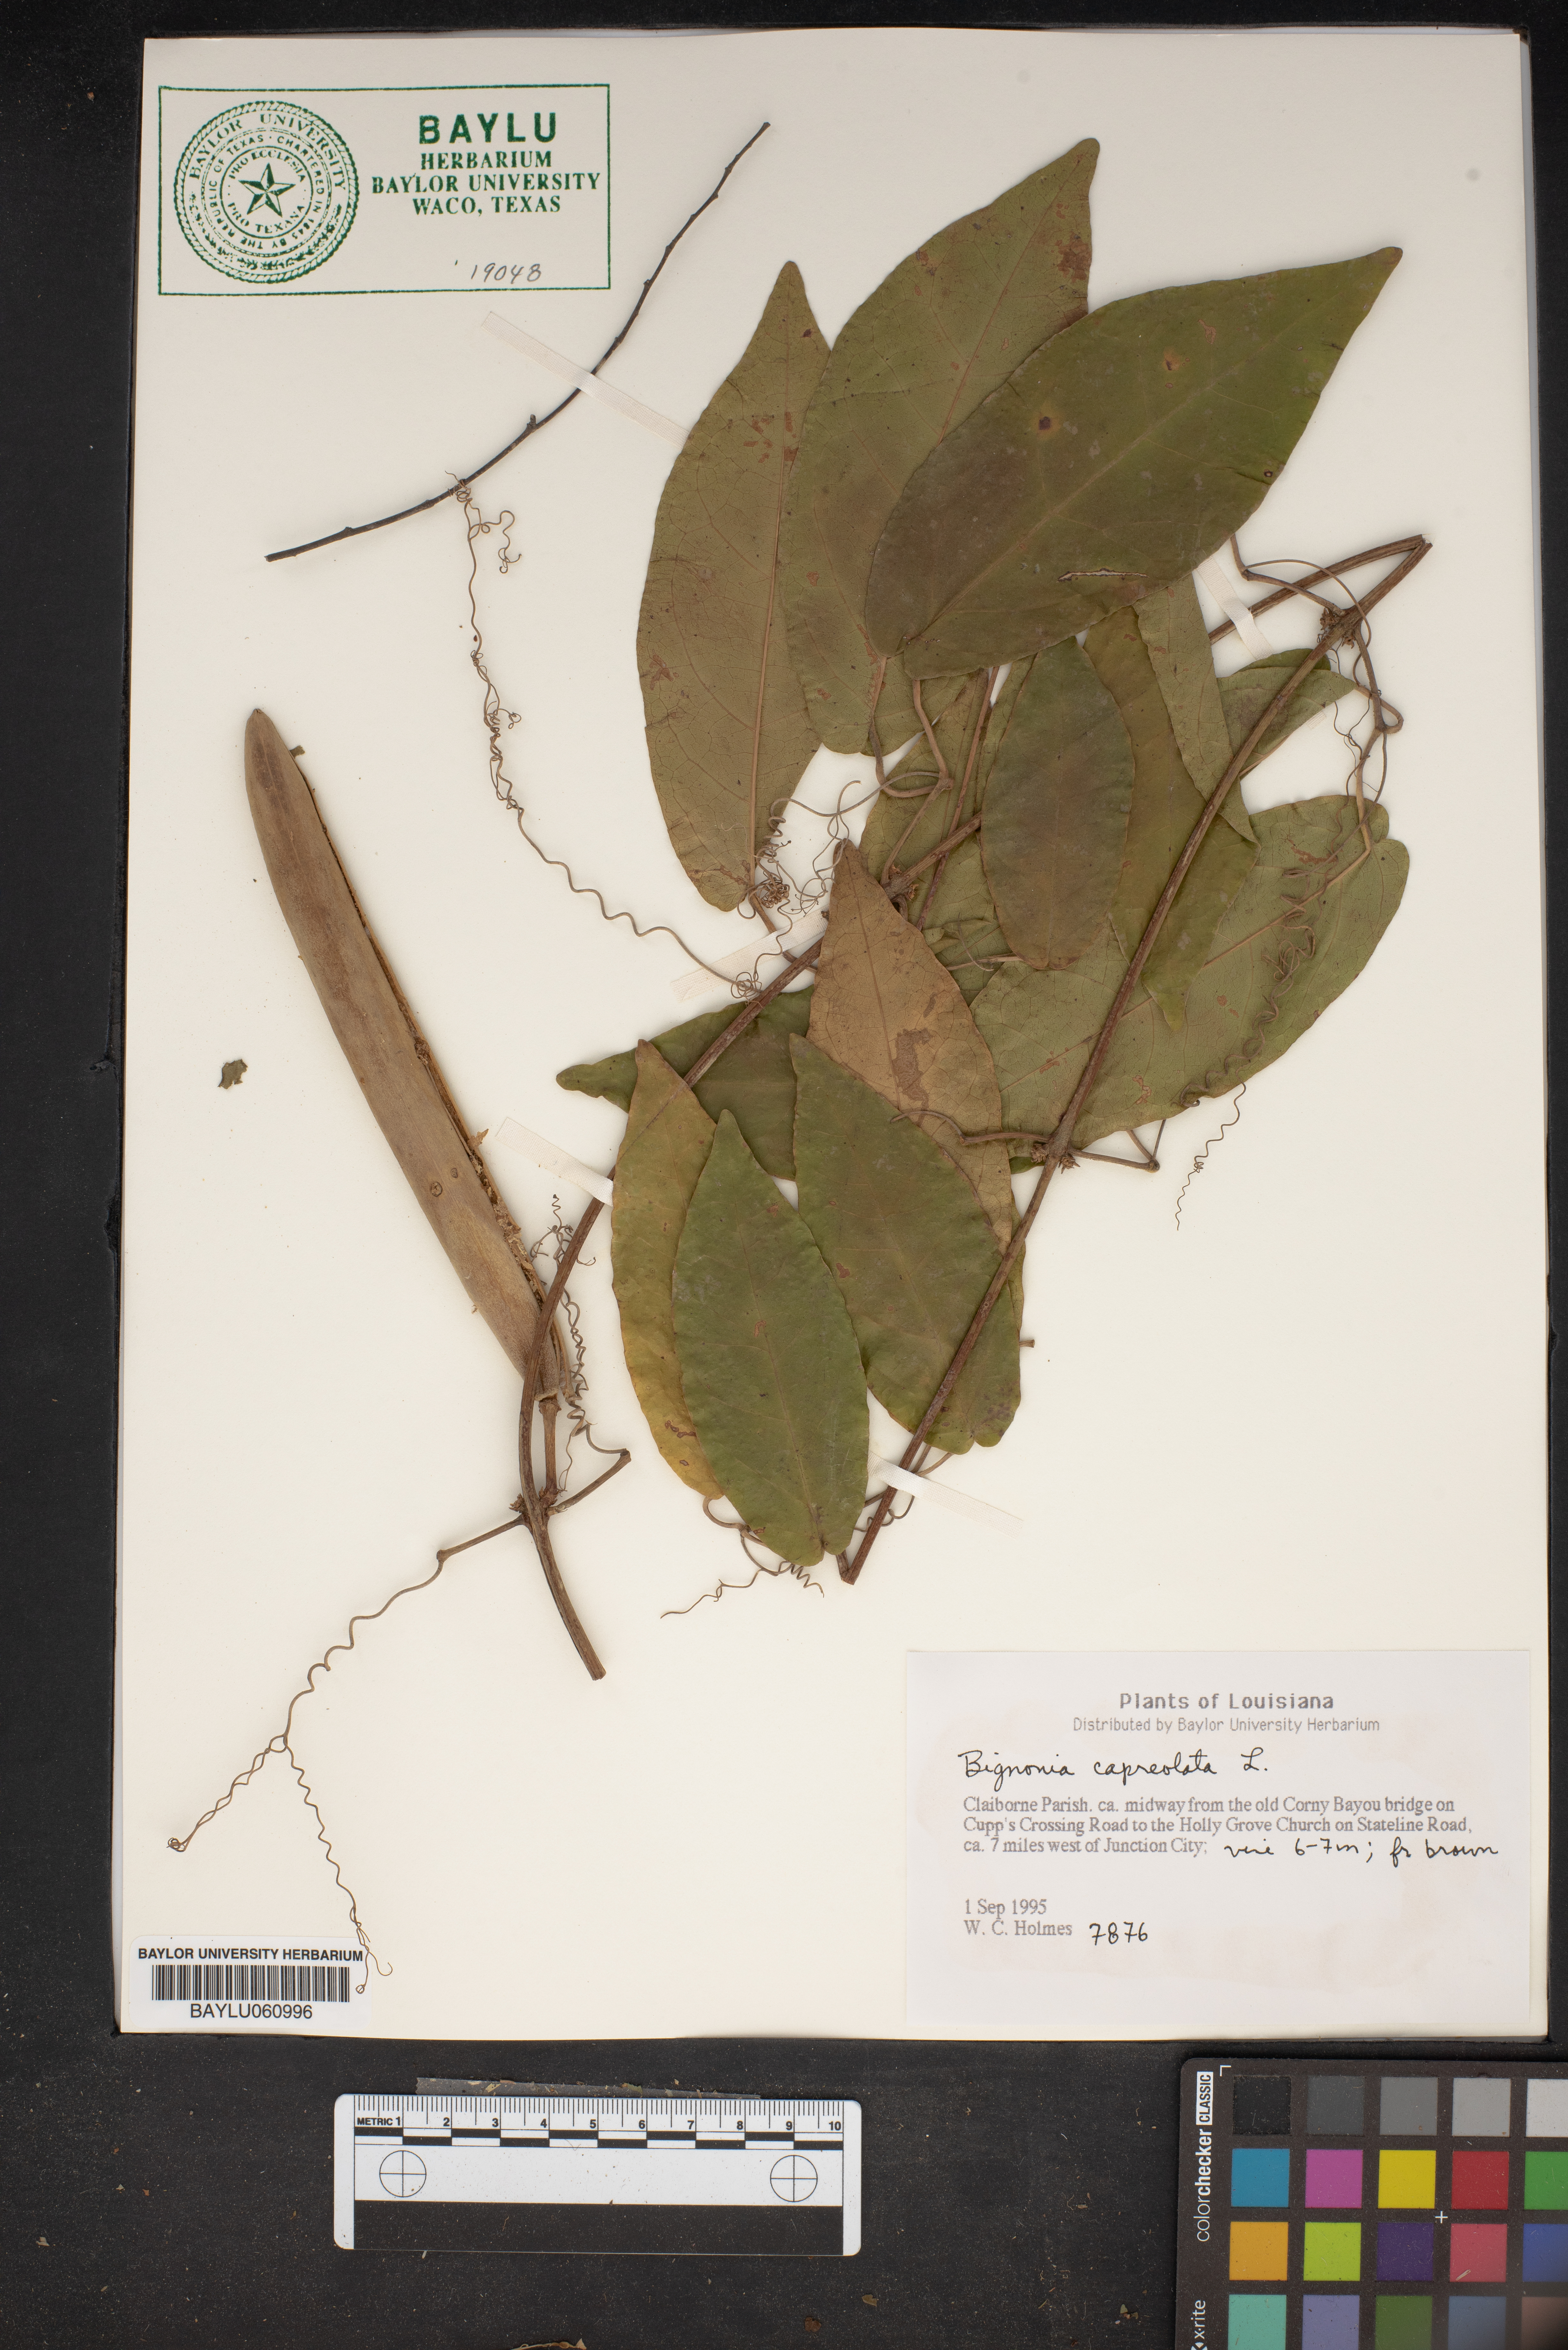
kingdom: Plantae
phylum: Tracheophyta
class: Magnoliopsida
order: Lamiales
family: Bignoniaceae
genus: Bignonia
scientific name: Bignonia capreolata
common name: Crossvine
